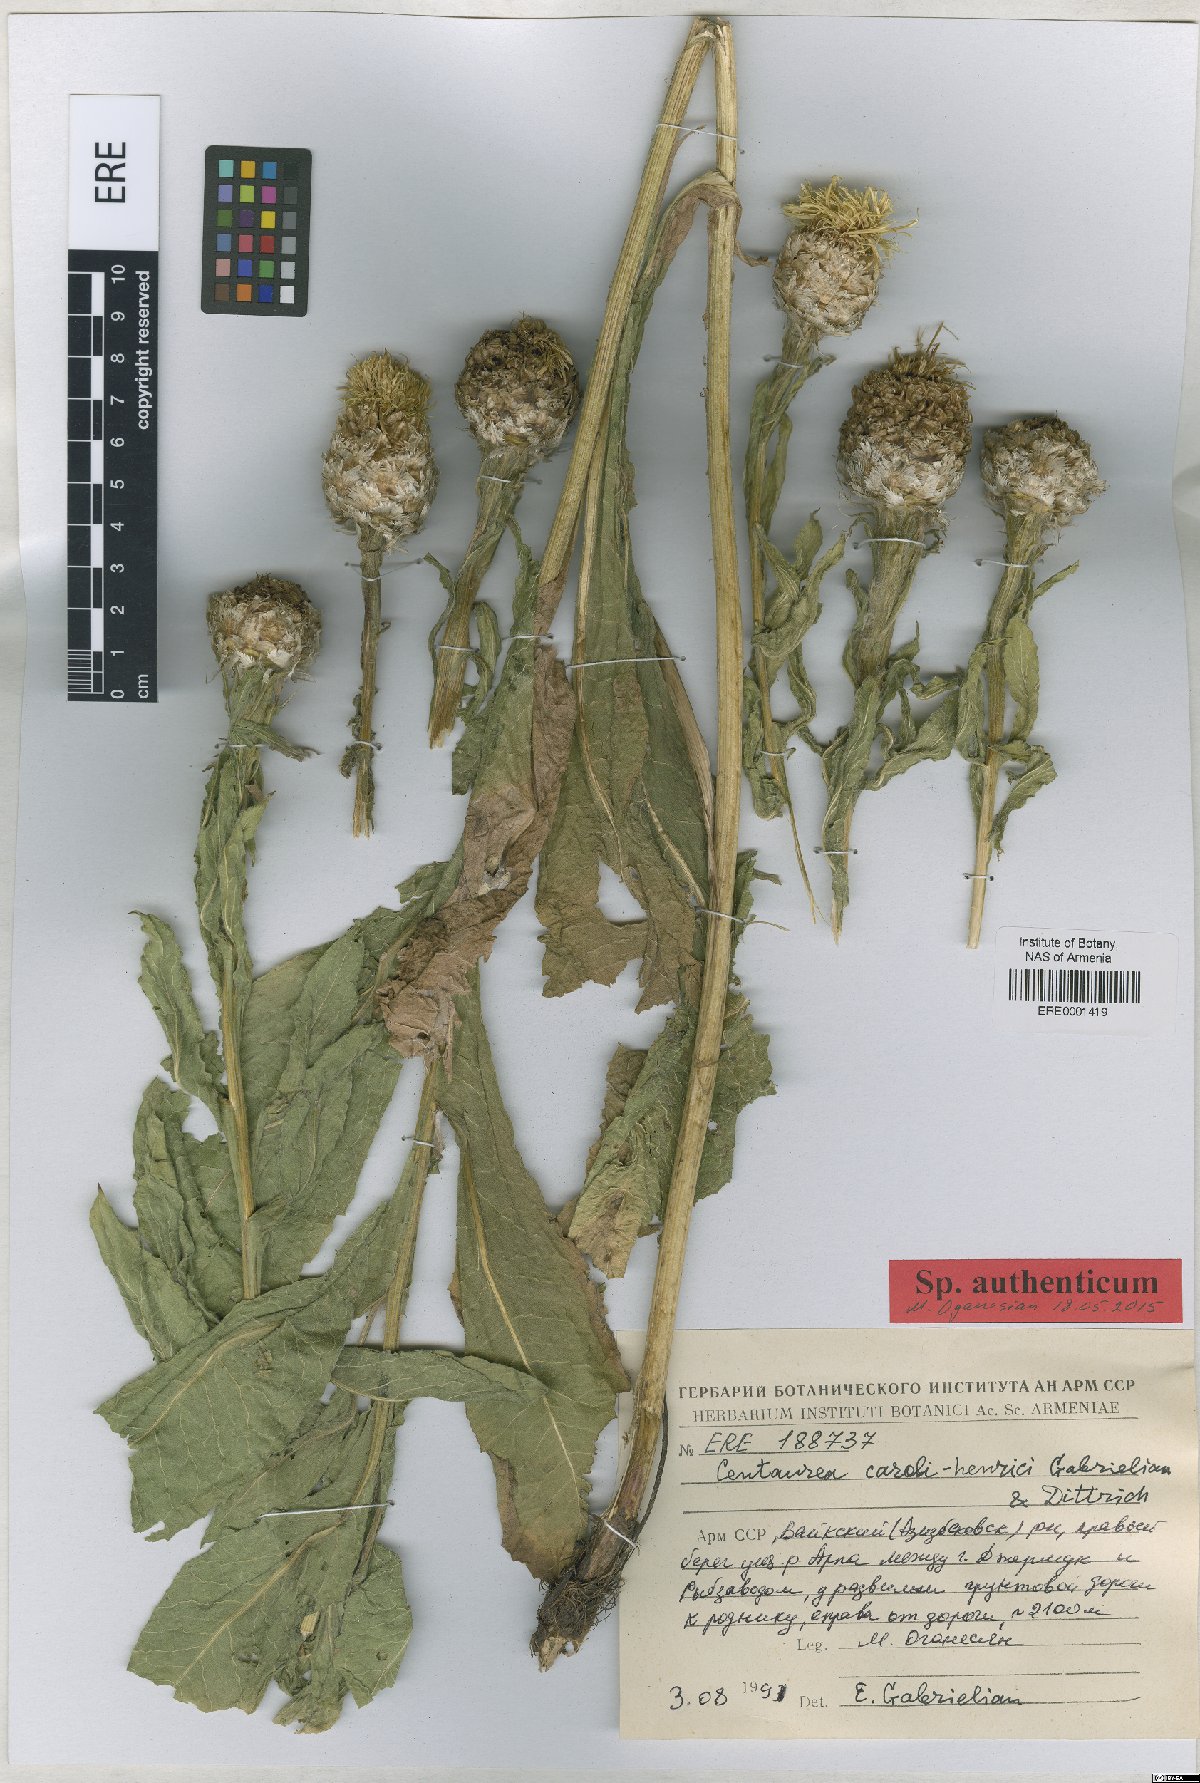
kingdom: Plantae
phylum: Tracheophyta
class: Magnoliopsida
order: Asterales
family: Asteraceae
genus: Centaurea
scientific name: Centaurea caroli-henrici
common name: Karl-henrikh's centaury
